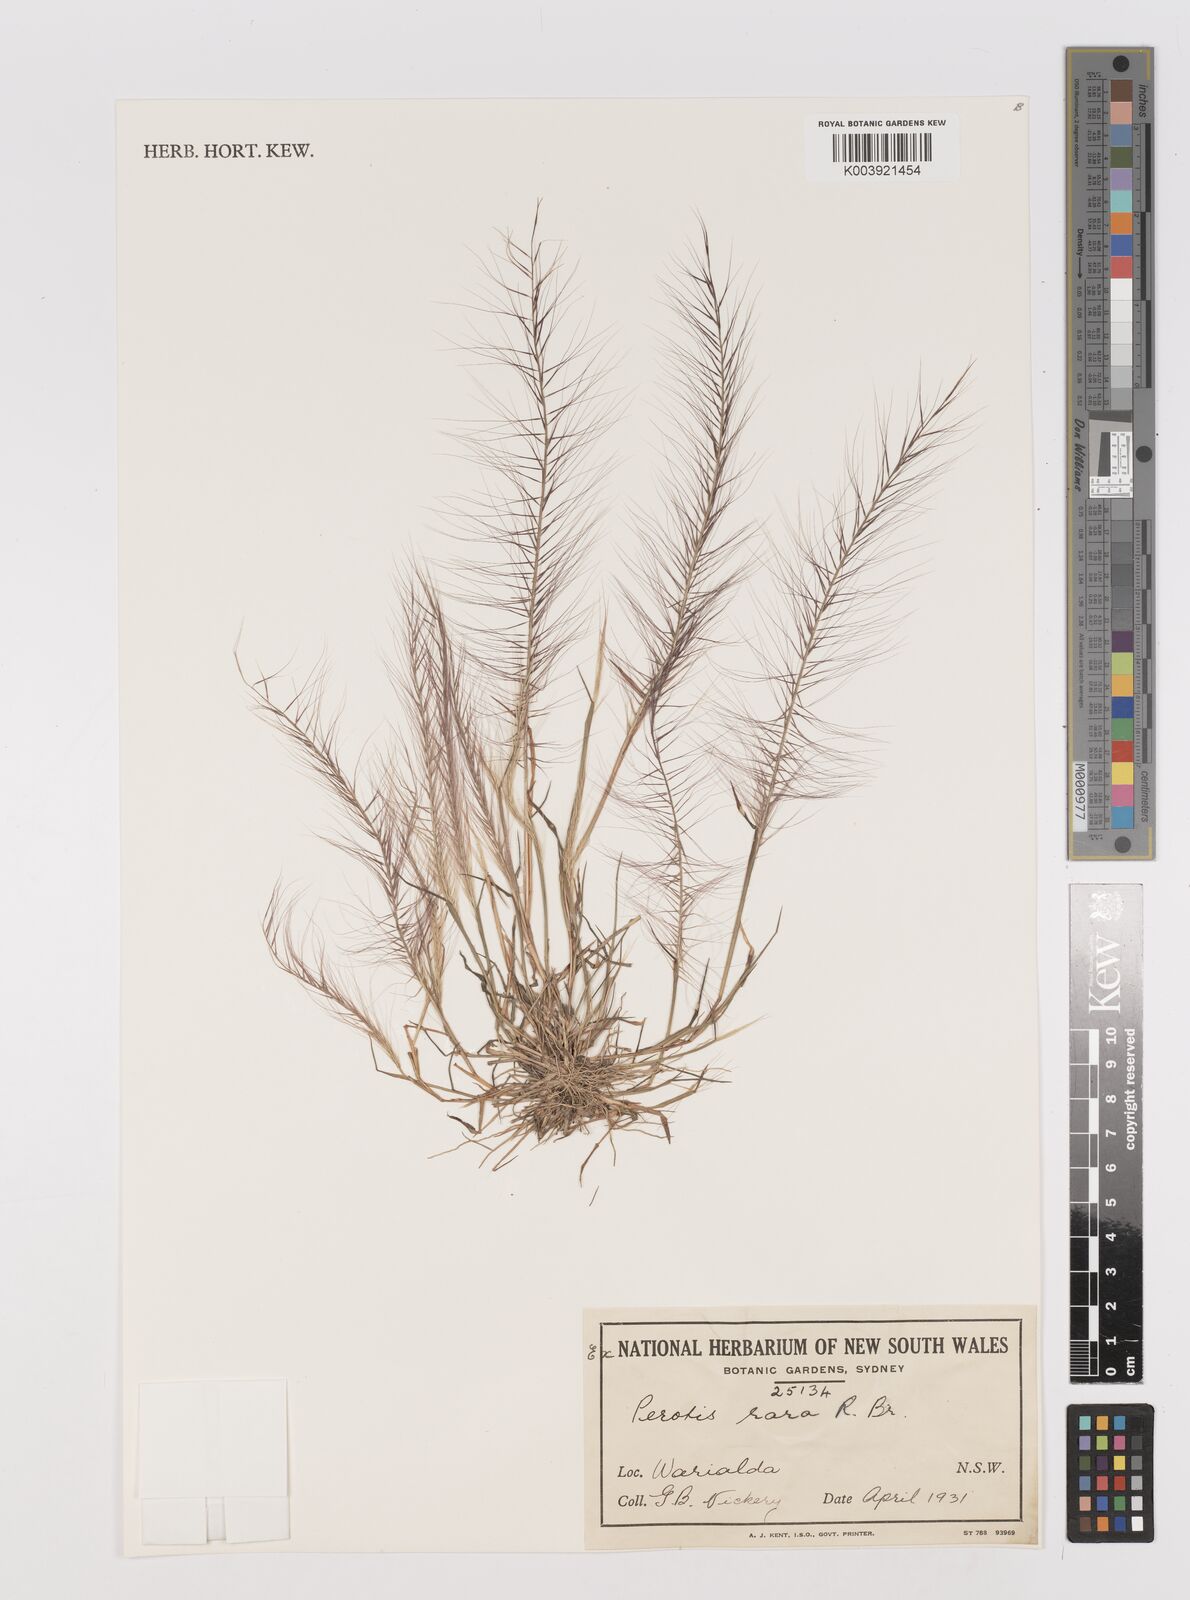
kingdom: Plantae
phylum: Tracheophyta
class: Liliopsida
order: Poales
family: Poaceae
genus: Perotis
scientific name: Perotis rara
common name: Comet grass
